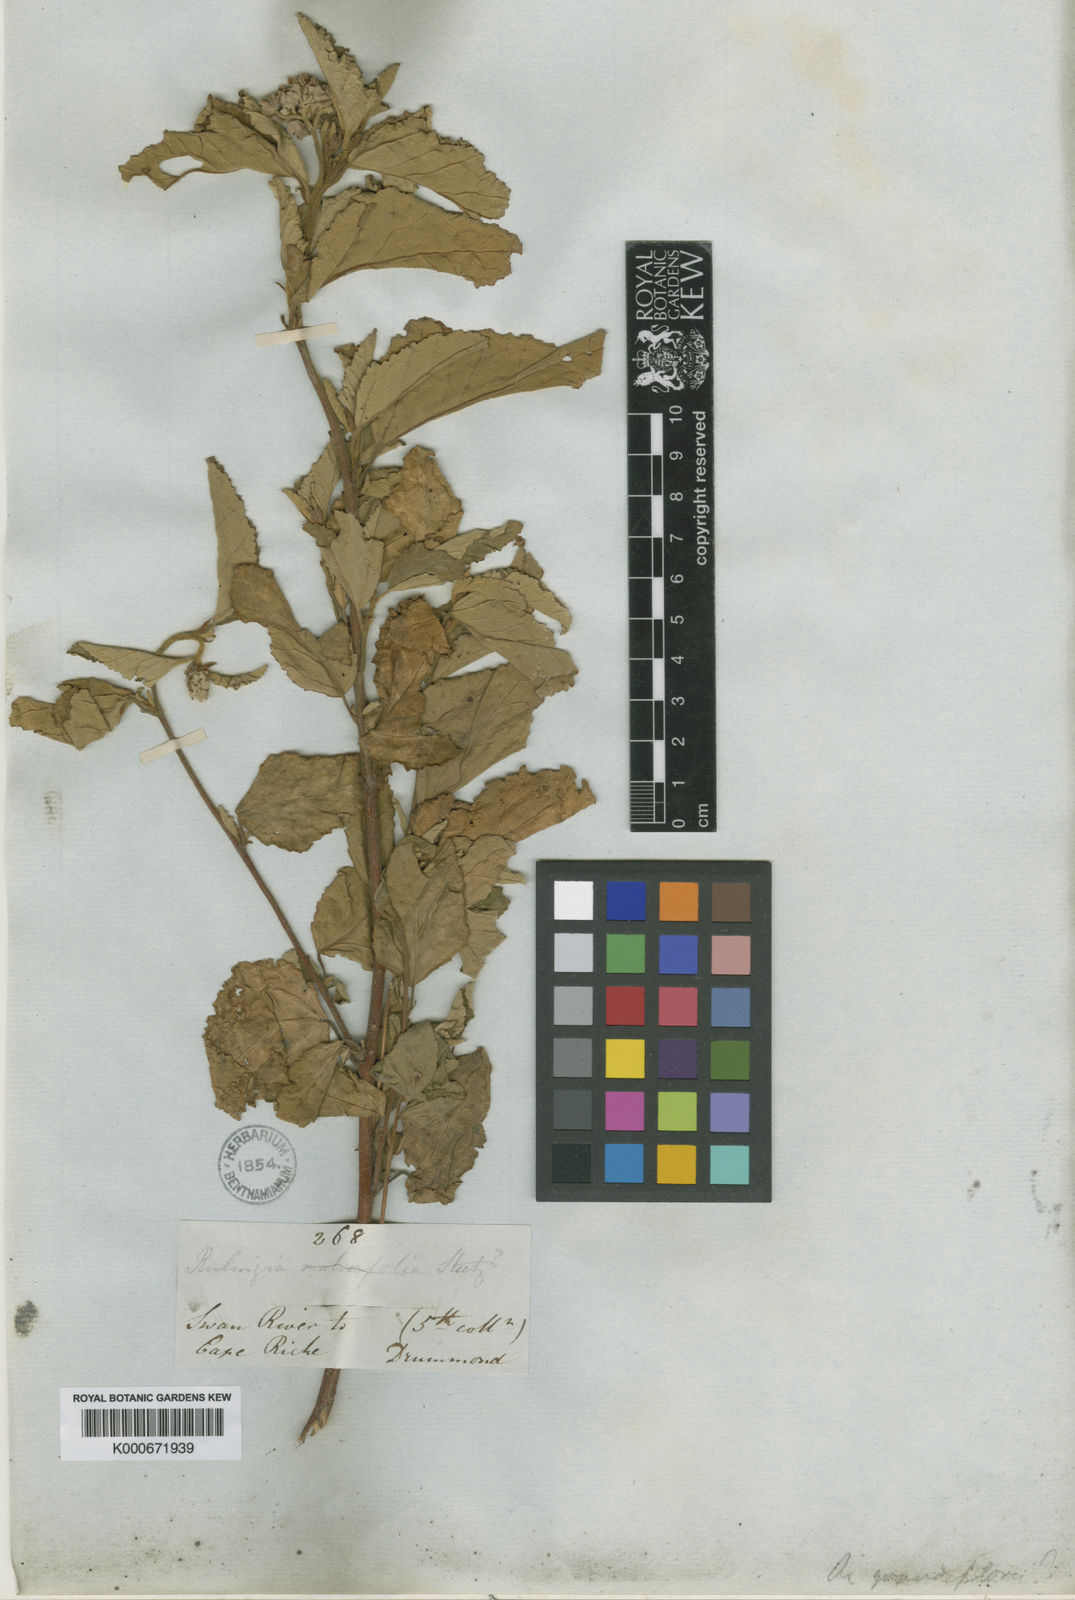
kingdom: Plantae
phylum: Tracheophyta
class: Magnoliopsida
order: Malvales
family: Malvaceae
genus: Commersonia
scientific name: Commersonia grandiflora
